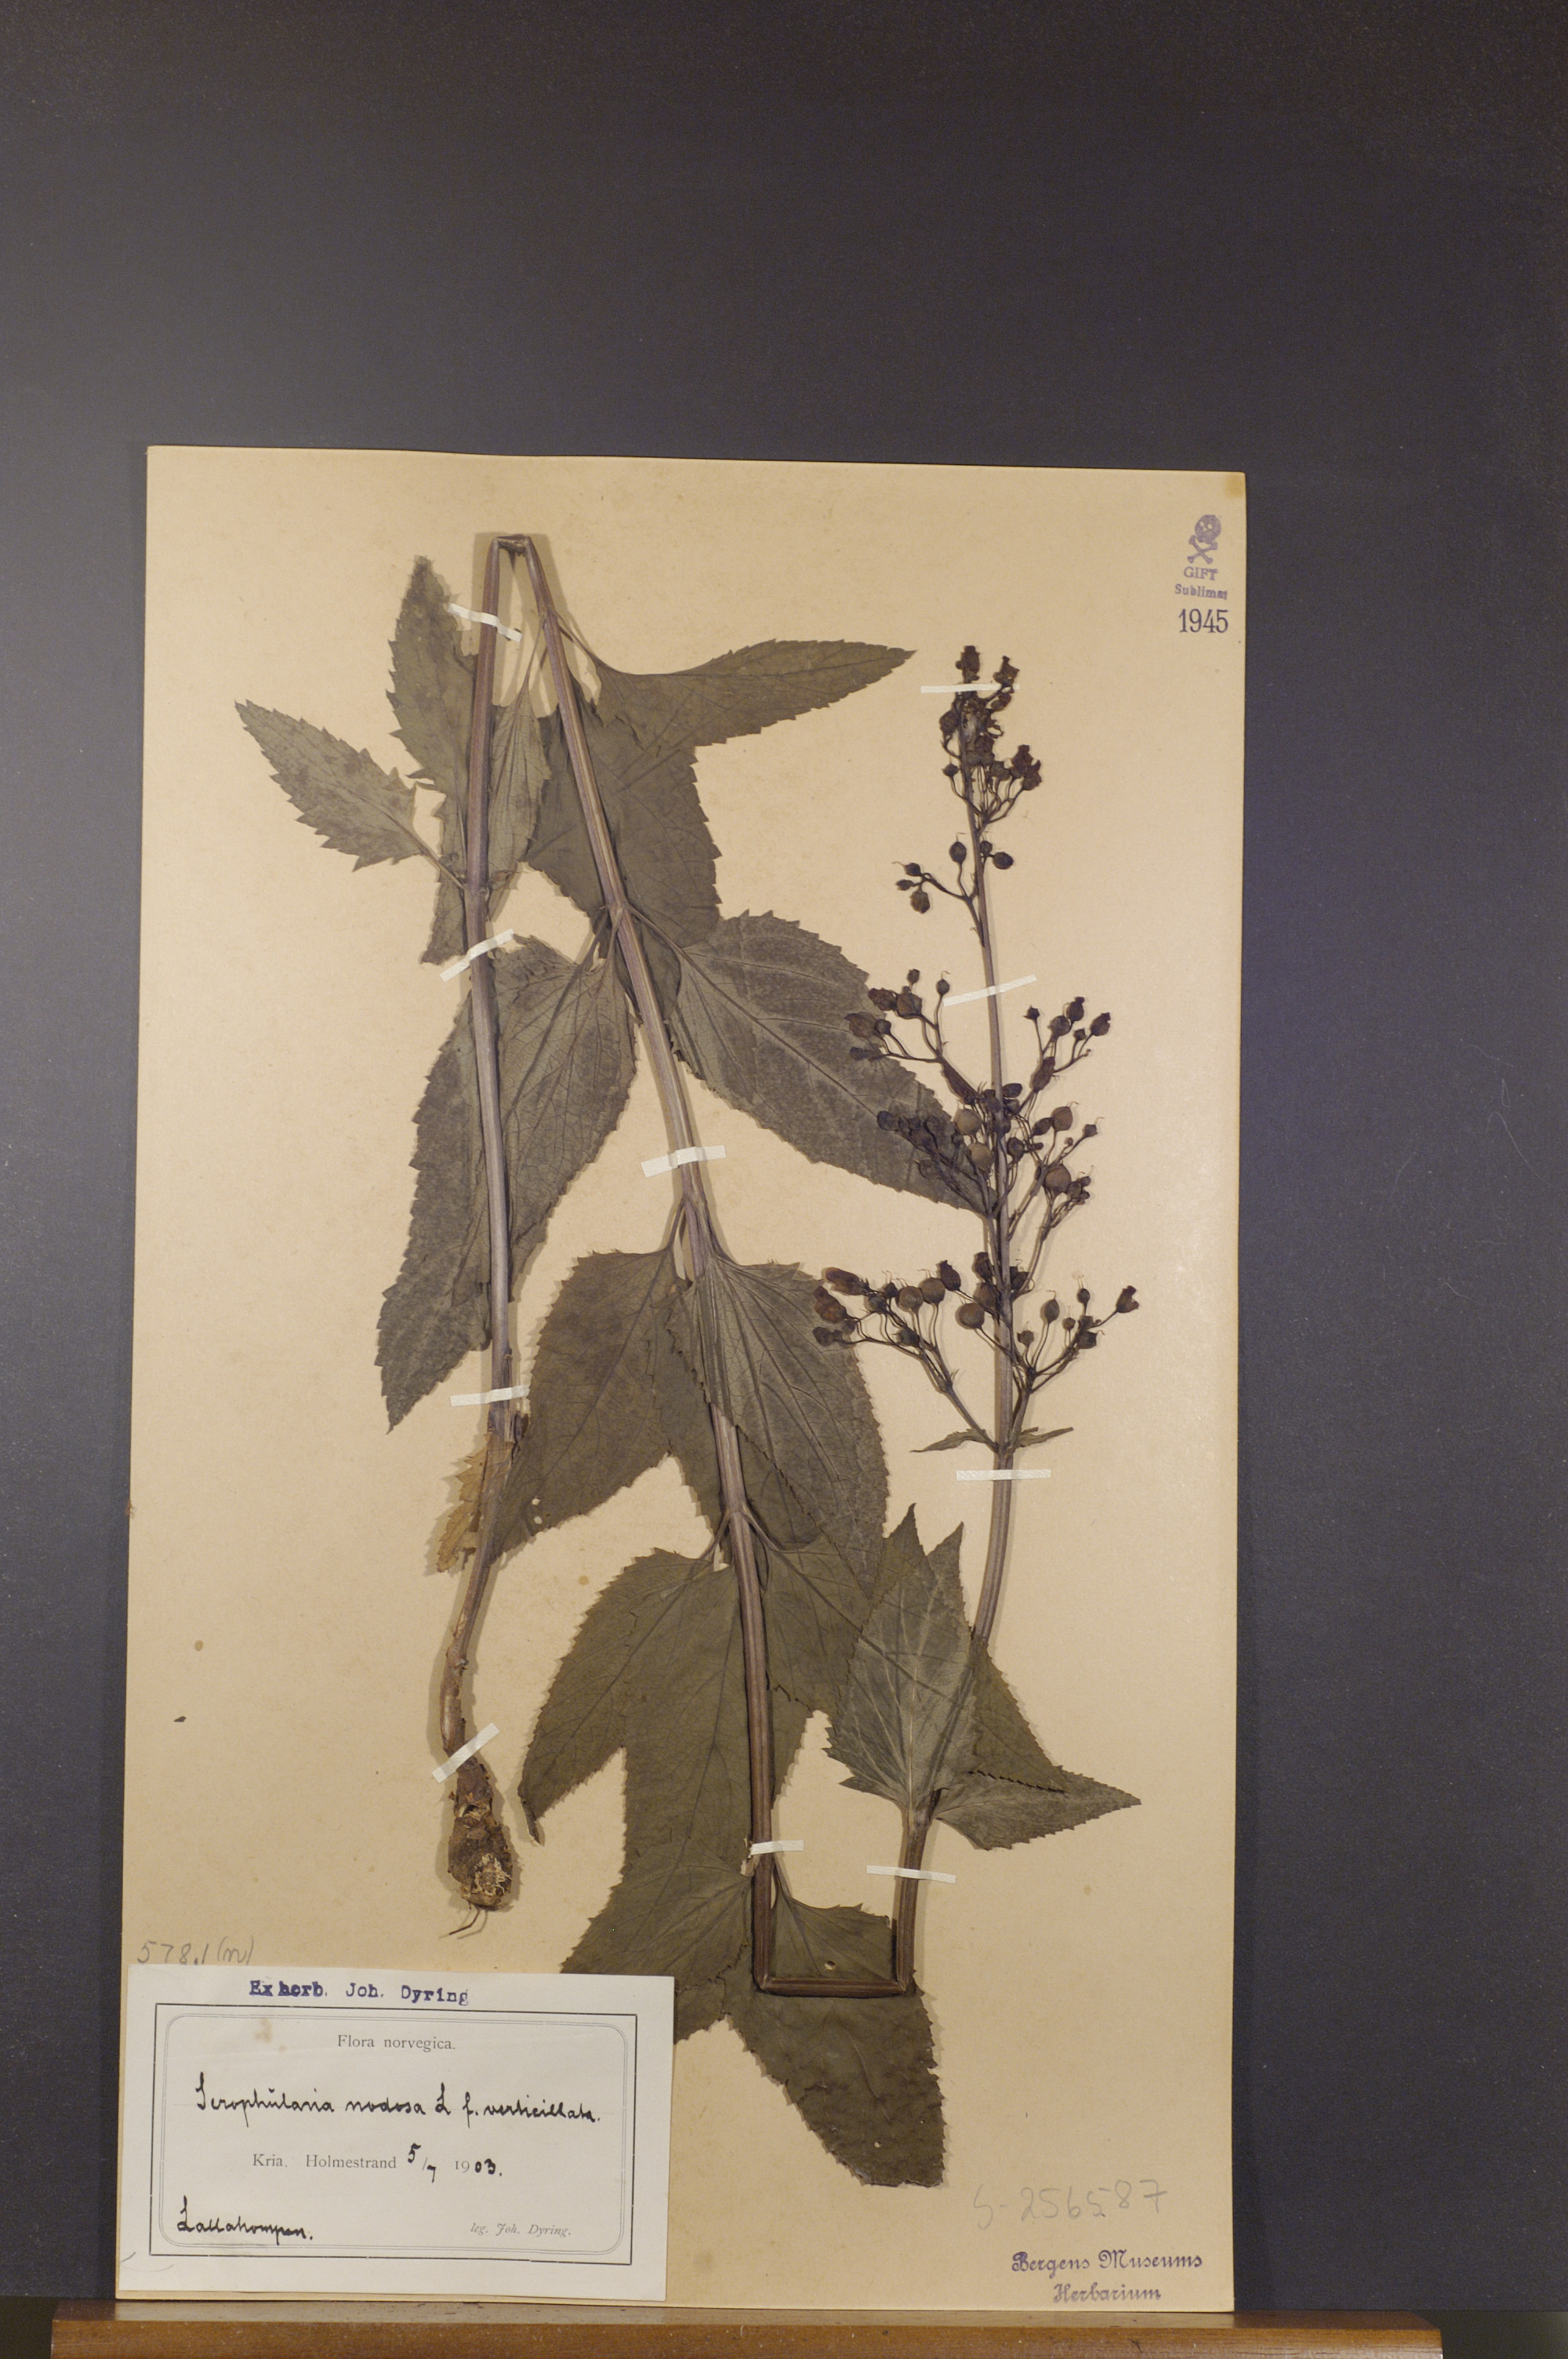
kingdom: Plantae
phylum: Tracheophyta
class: Magnoliopsida
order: Lamiales
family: Scrophulariaceae
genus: Scrophularia
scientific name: Scrophularia nodosa
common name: Common figwort
